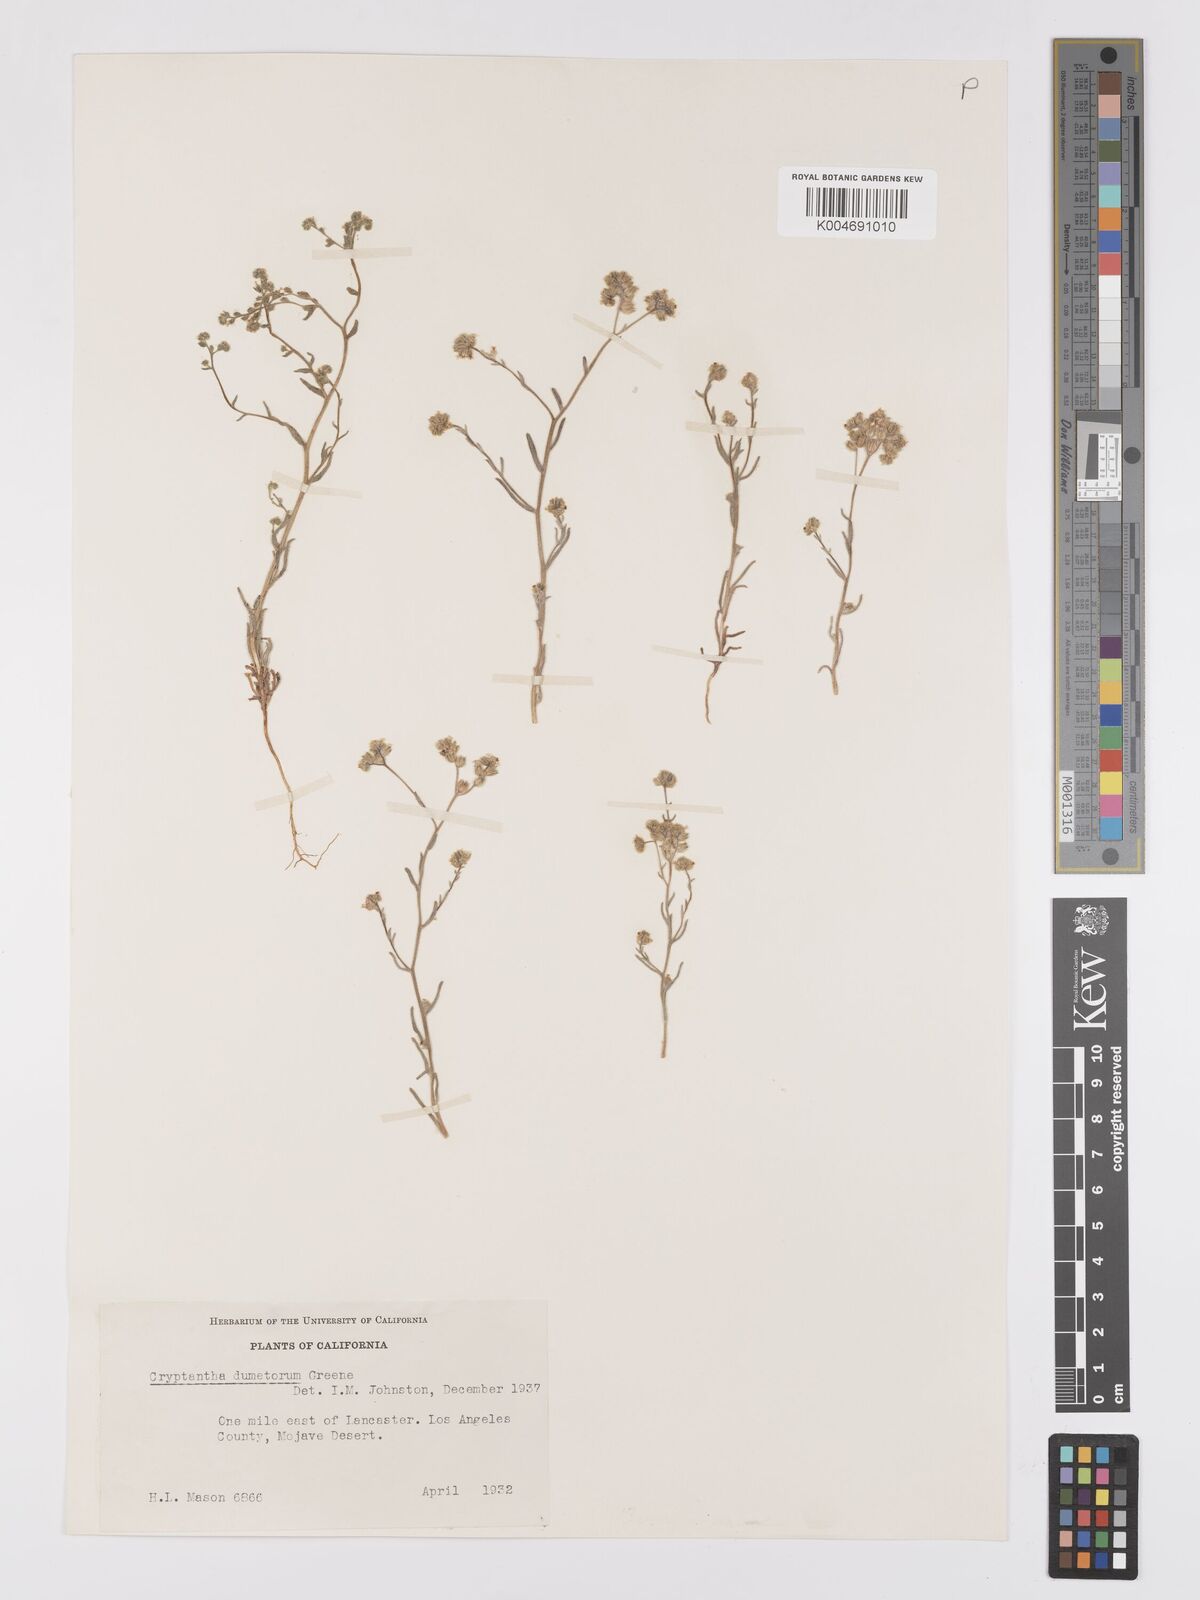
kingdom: Plantae
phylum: Tracheophyta
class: Magnoliopsida
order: Boraginales
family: Boraginaceae
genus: Cryptantha
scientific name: Cryptantha dumetorum
